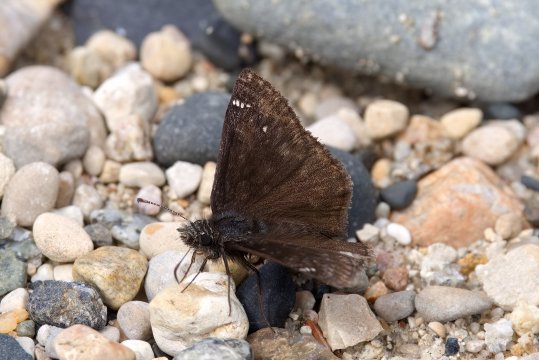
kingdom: Animalia
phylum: Arthropoda
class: Insecta
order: Lepidoptera
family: Hesperiidae
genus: Gesta
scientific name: Gesta
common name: Persius Duskywing
